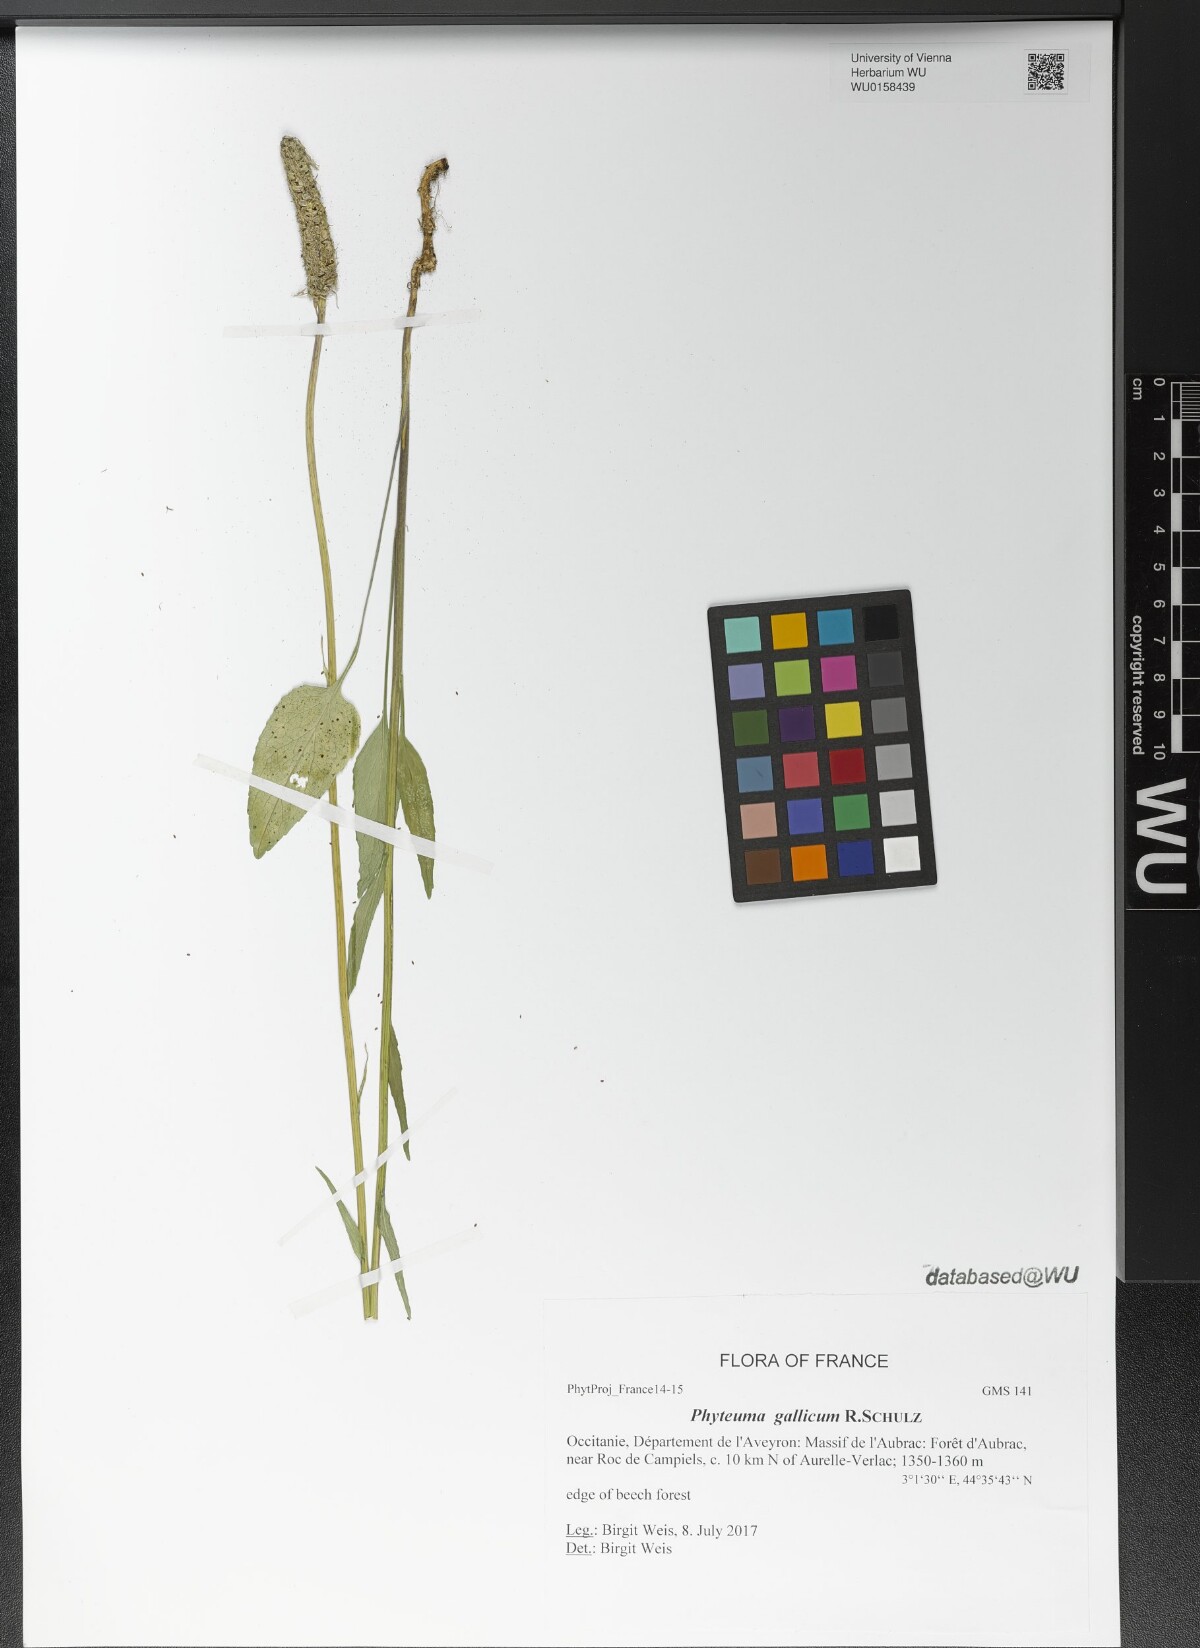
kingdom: Plantae
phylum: Tracheophyta
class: Magnoliopsida
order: Asterales
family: Campanulaceae
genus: Phyteuma
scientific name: Phyteuma gallicum
